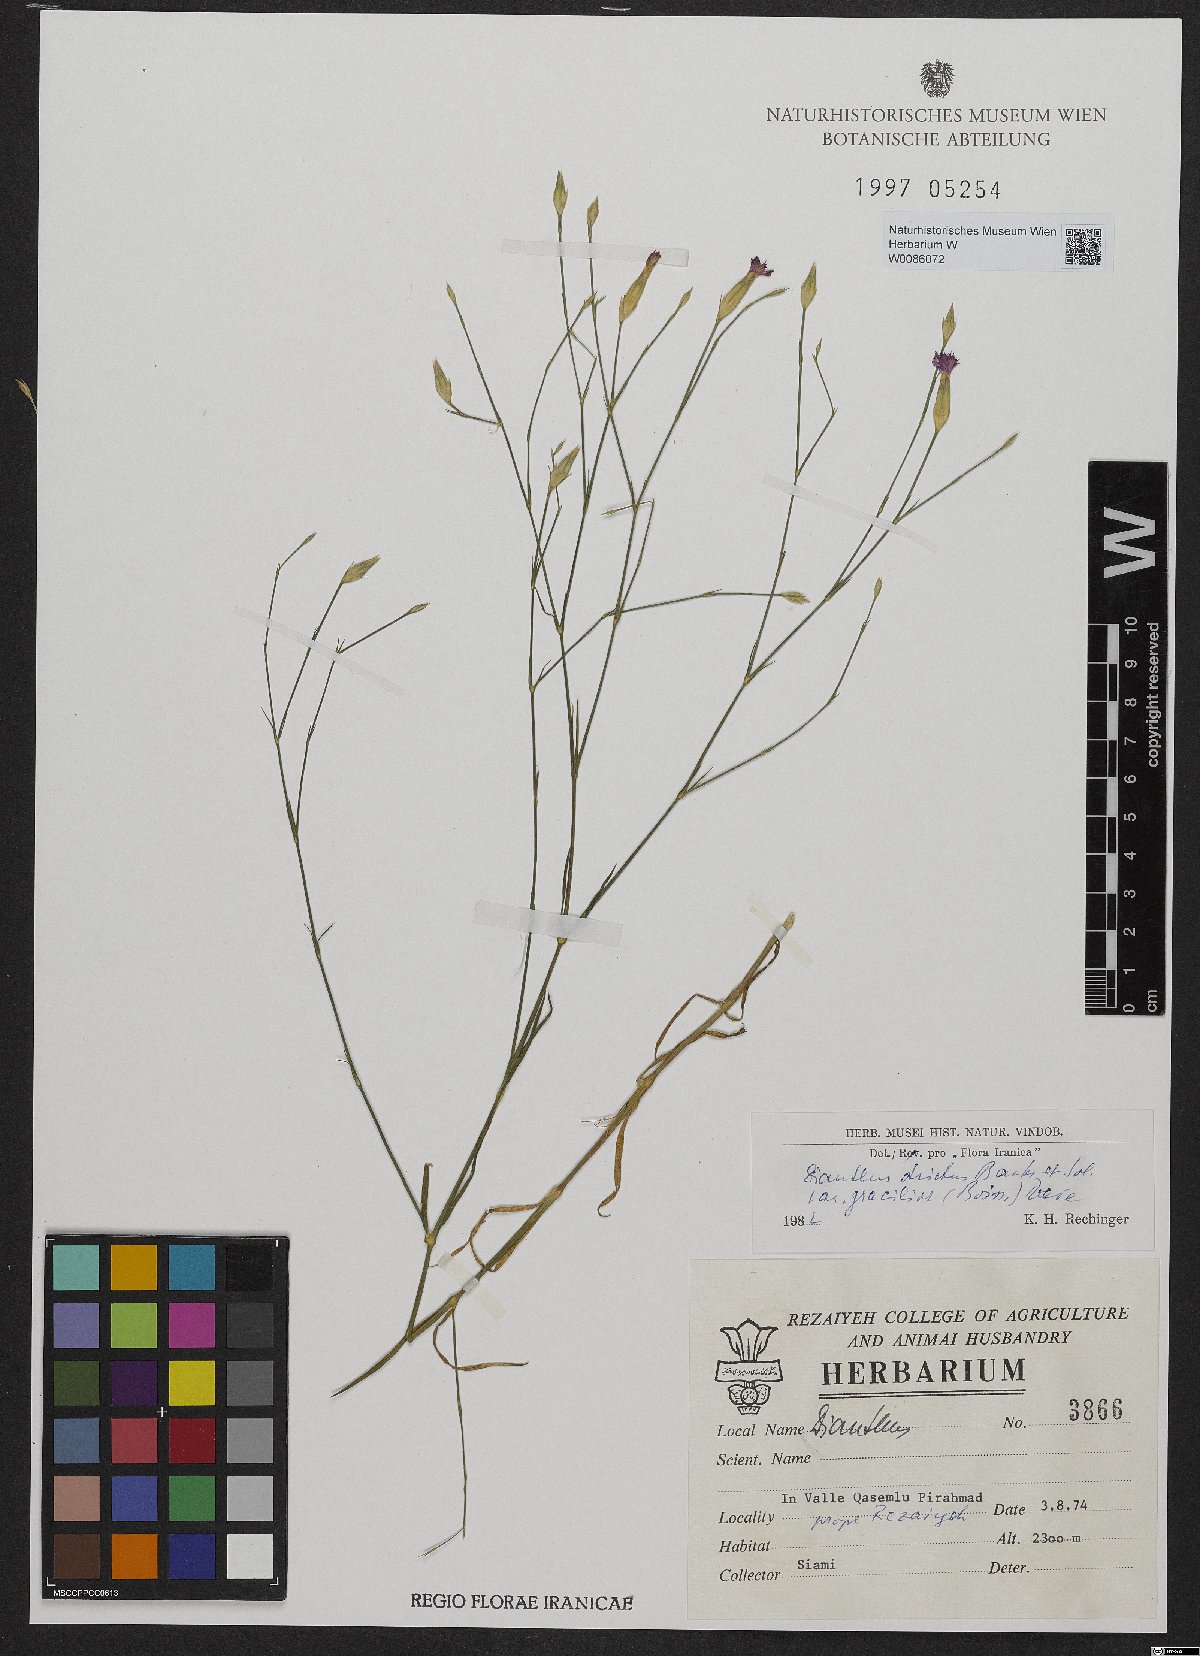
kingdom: Plantae
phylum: Tracheophyta
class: Magnoliopsida
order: Caryophyllales
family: Caryophyllaceae
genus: Dianthus
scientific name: Dianthus strictus
